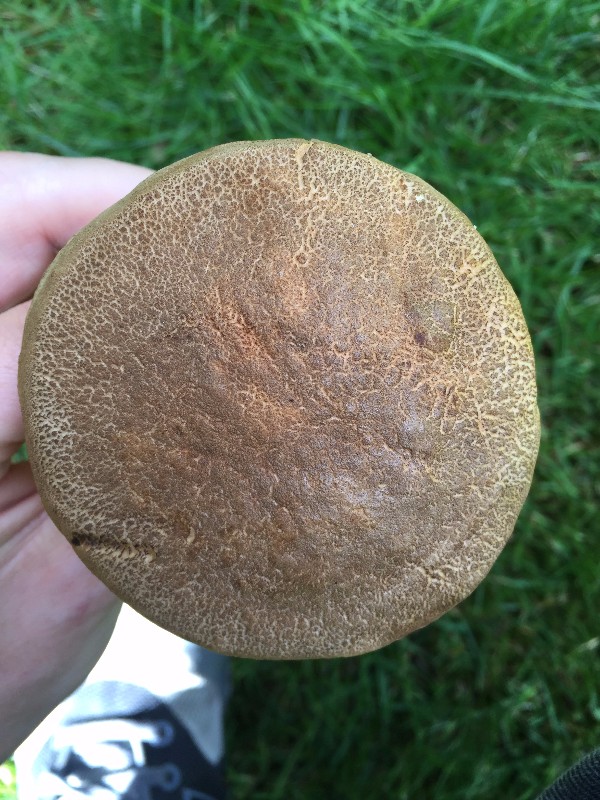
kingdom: Fungi
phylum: Basidiomycota
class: Agaricomycetes
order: Boletales
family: Boletaceae
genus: Hortiboletus
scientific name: Hortiboletus engelii
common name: fersken-rørhat
